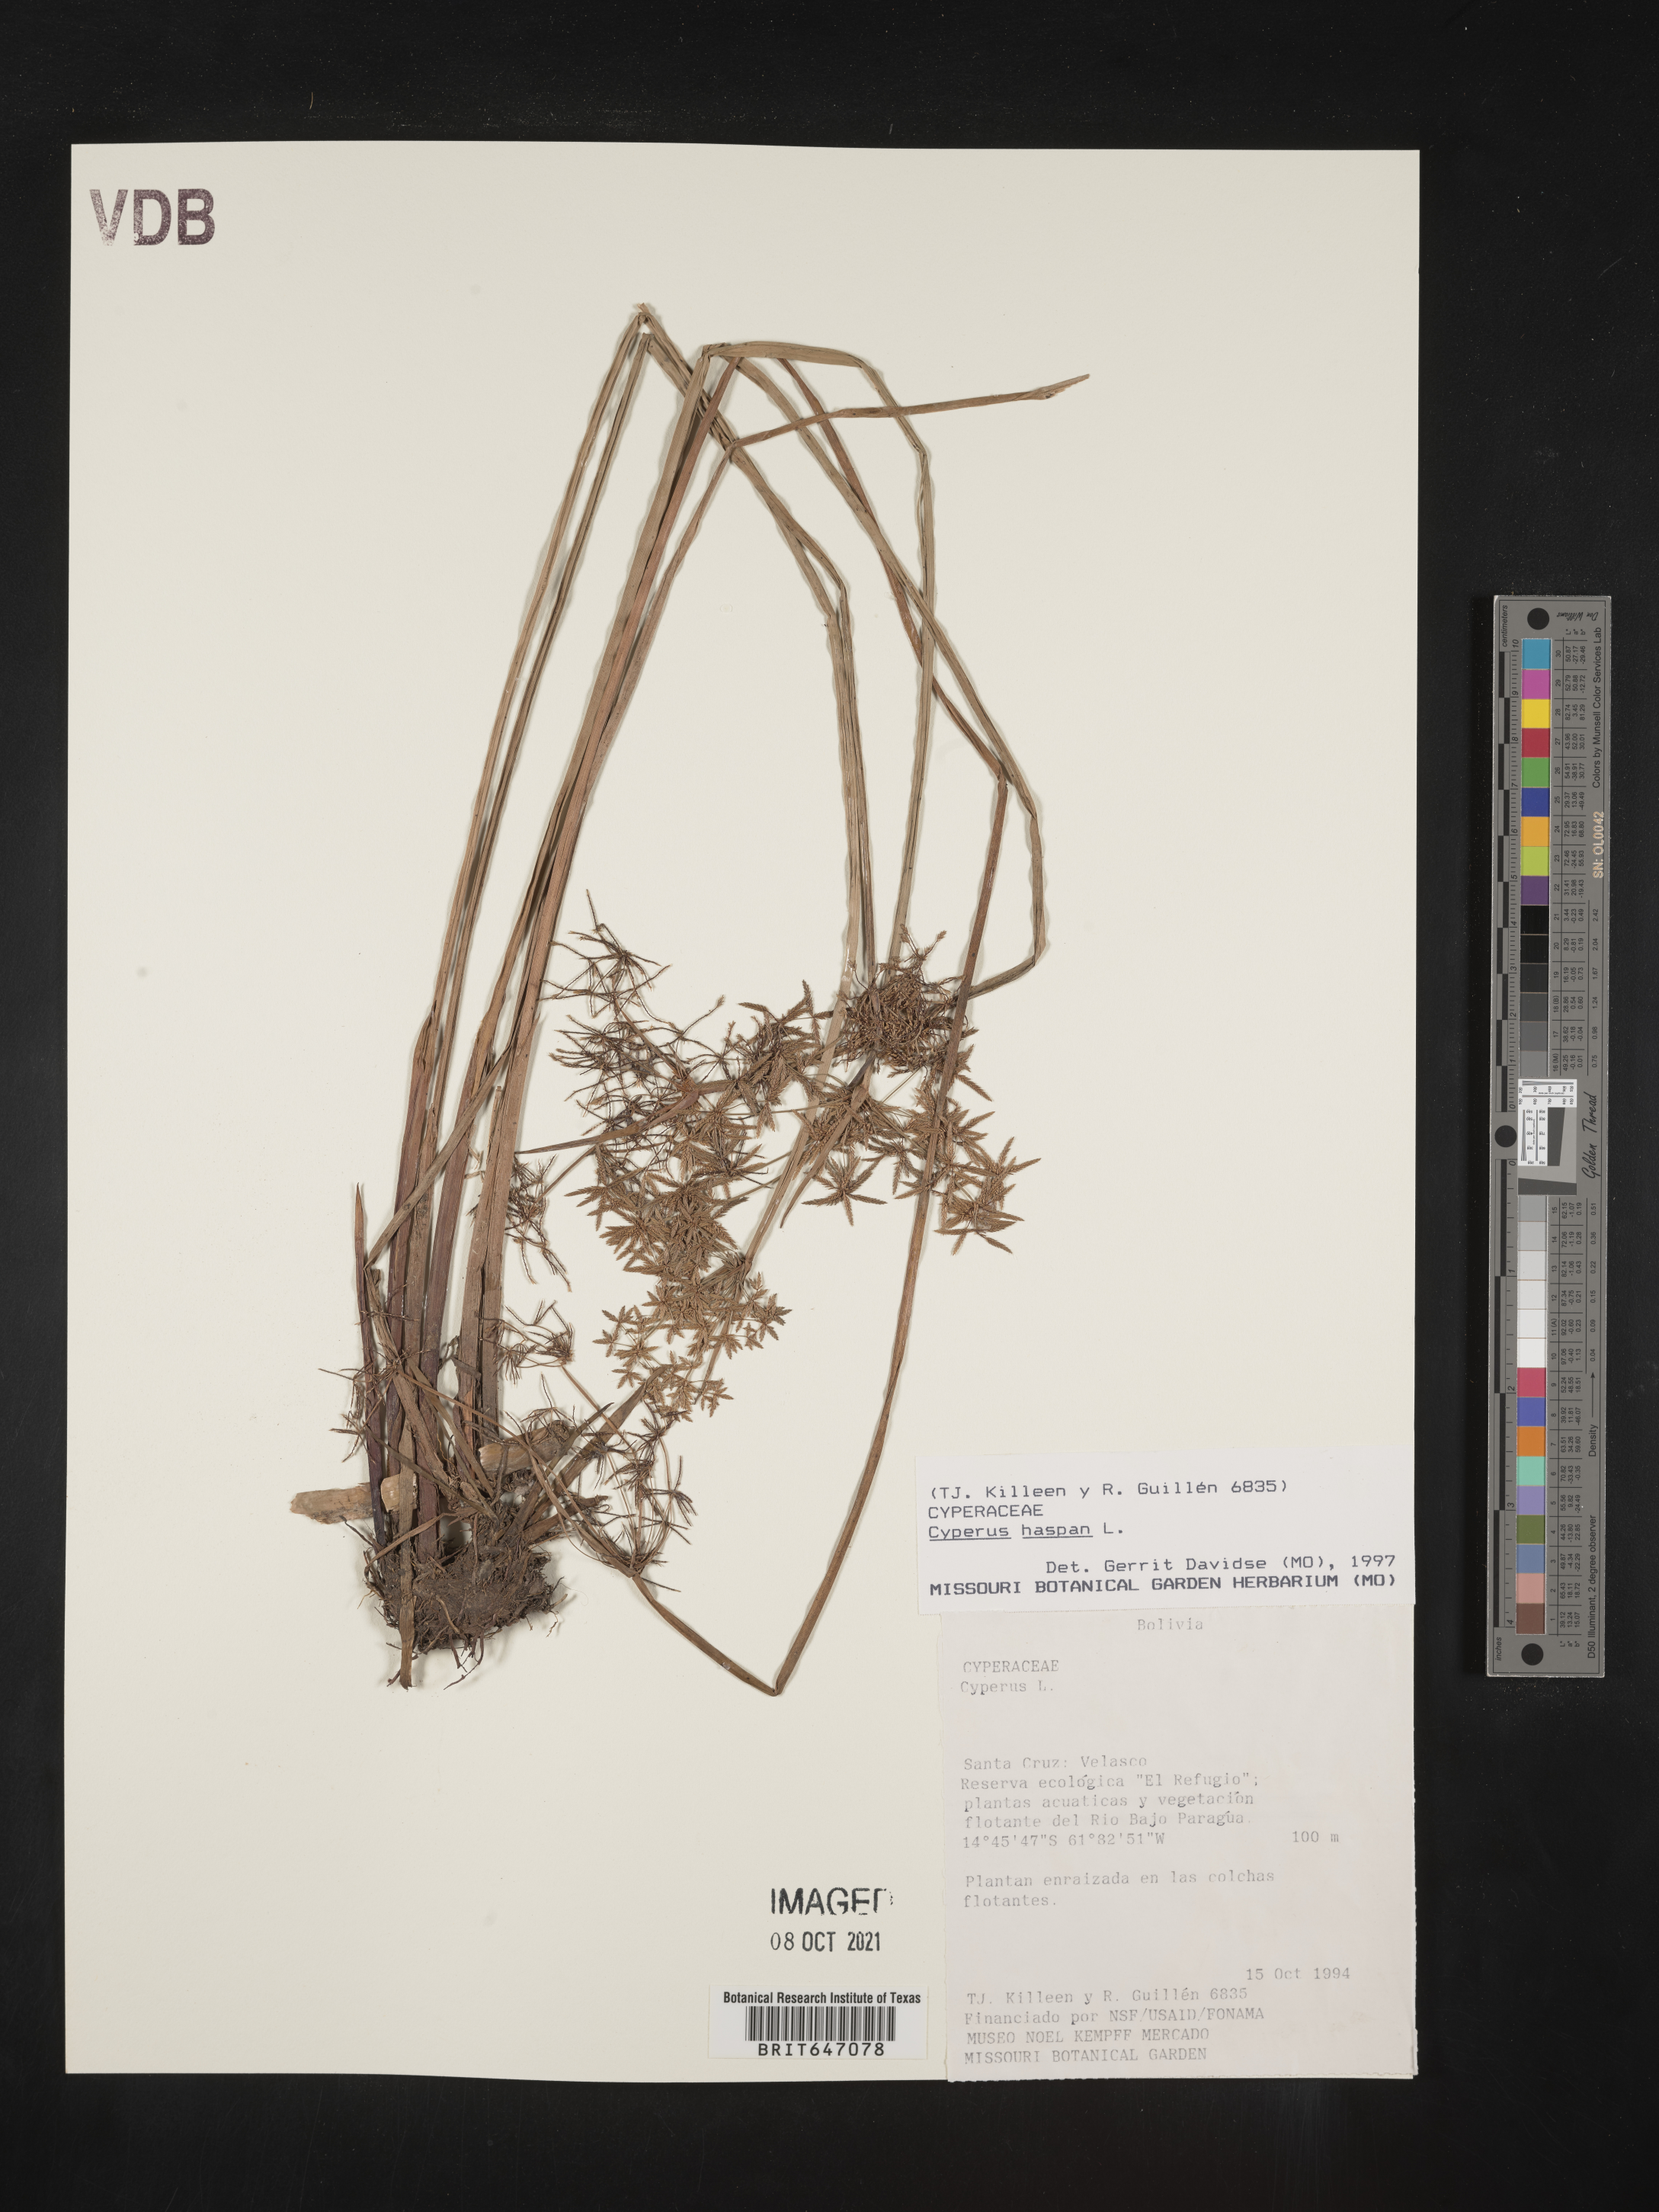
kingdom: Plantae
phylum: Tracheophyta
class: Liliopsida
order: Poales
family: Cyperaceae
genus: Cyperus
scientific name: Cyperus haspan
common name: Haspan flatsedge
